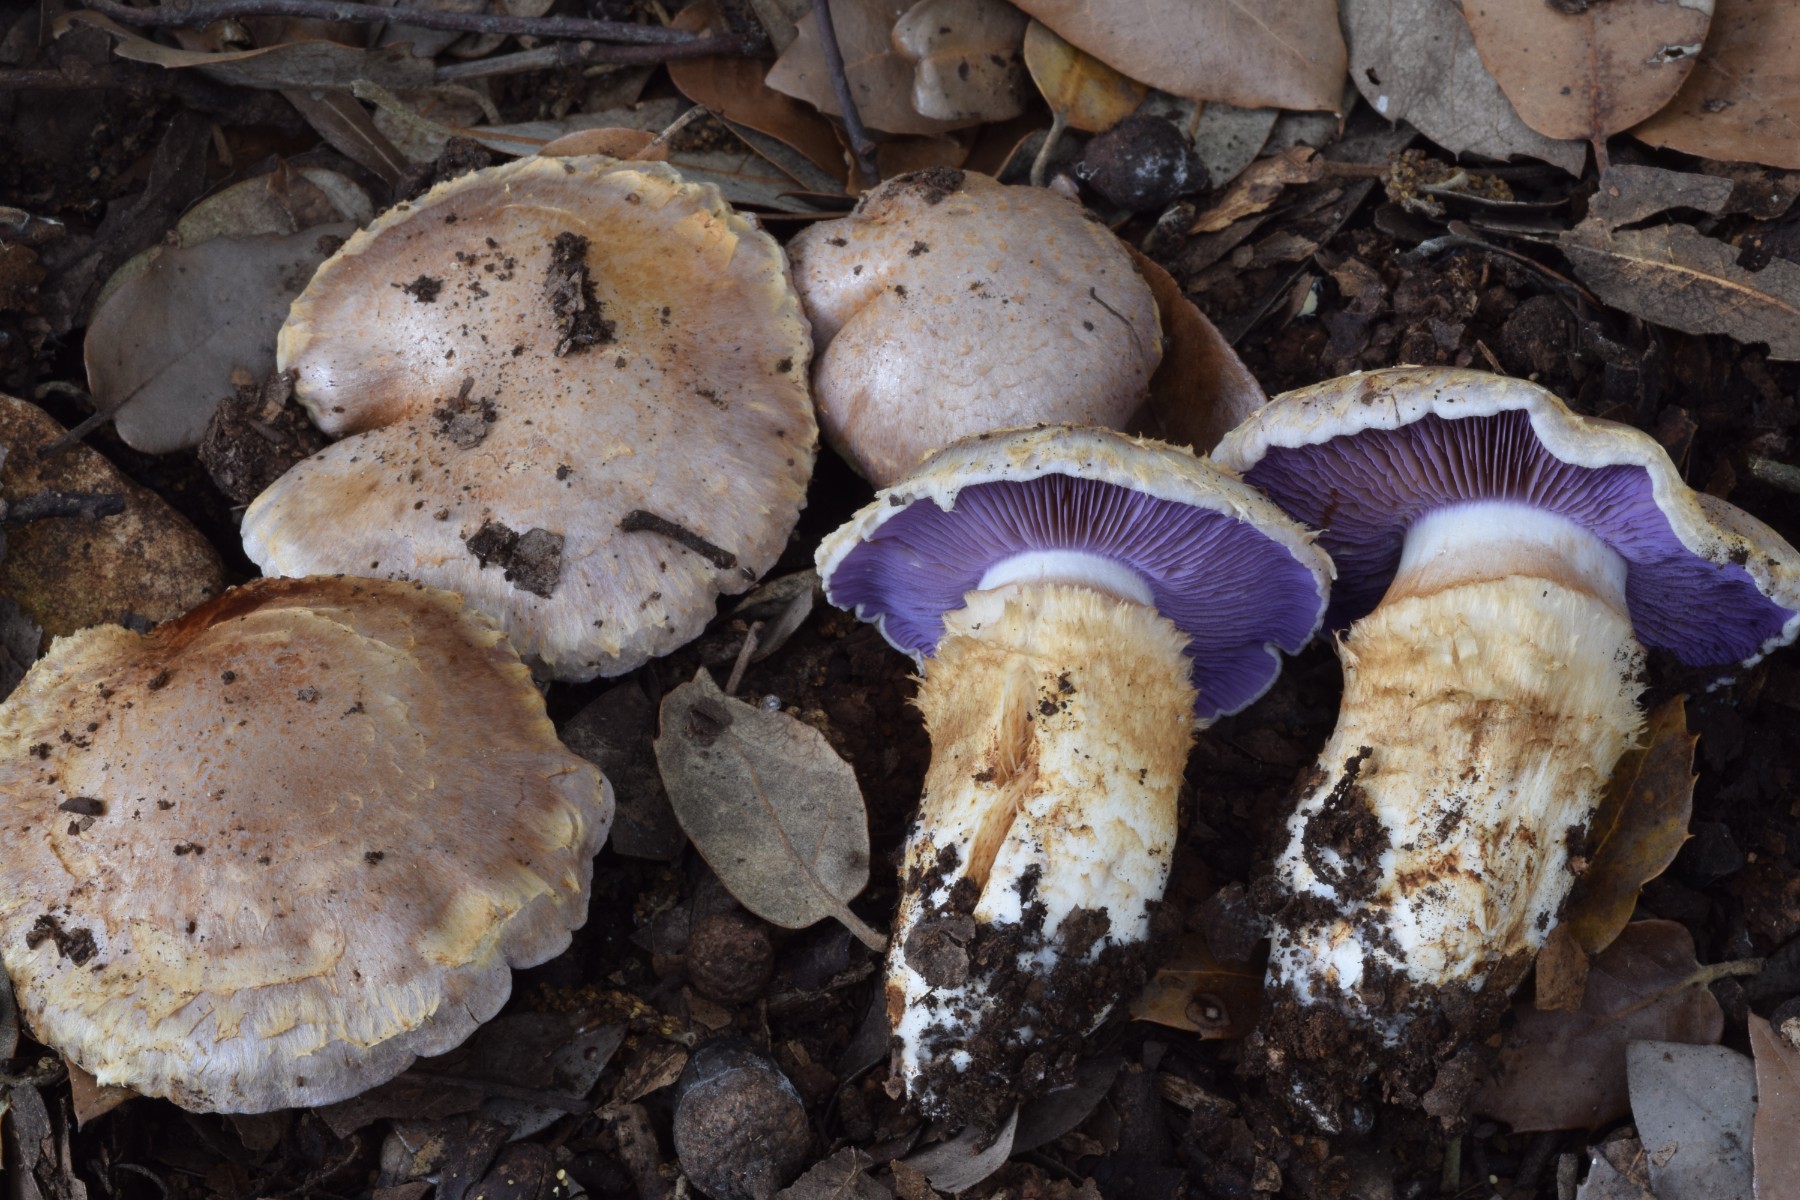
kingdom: Fungi
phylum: Basidiomycota
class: Agaricomycetes
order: Agaricales
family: Cortinariaceae
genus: Phlegmacium
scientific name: Phlegmacium caligatum
